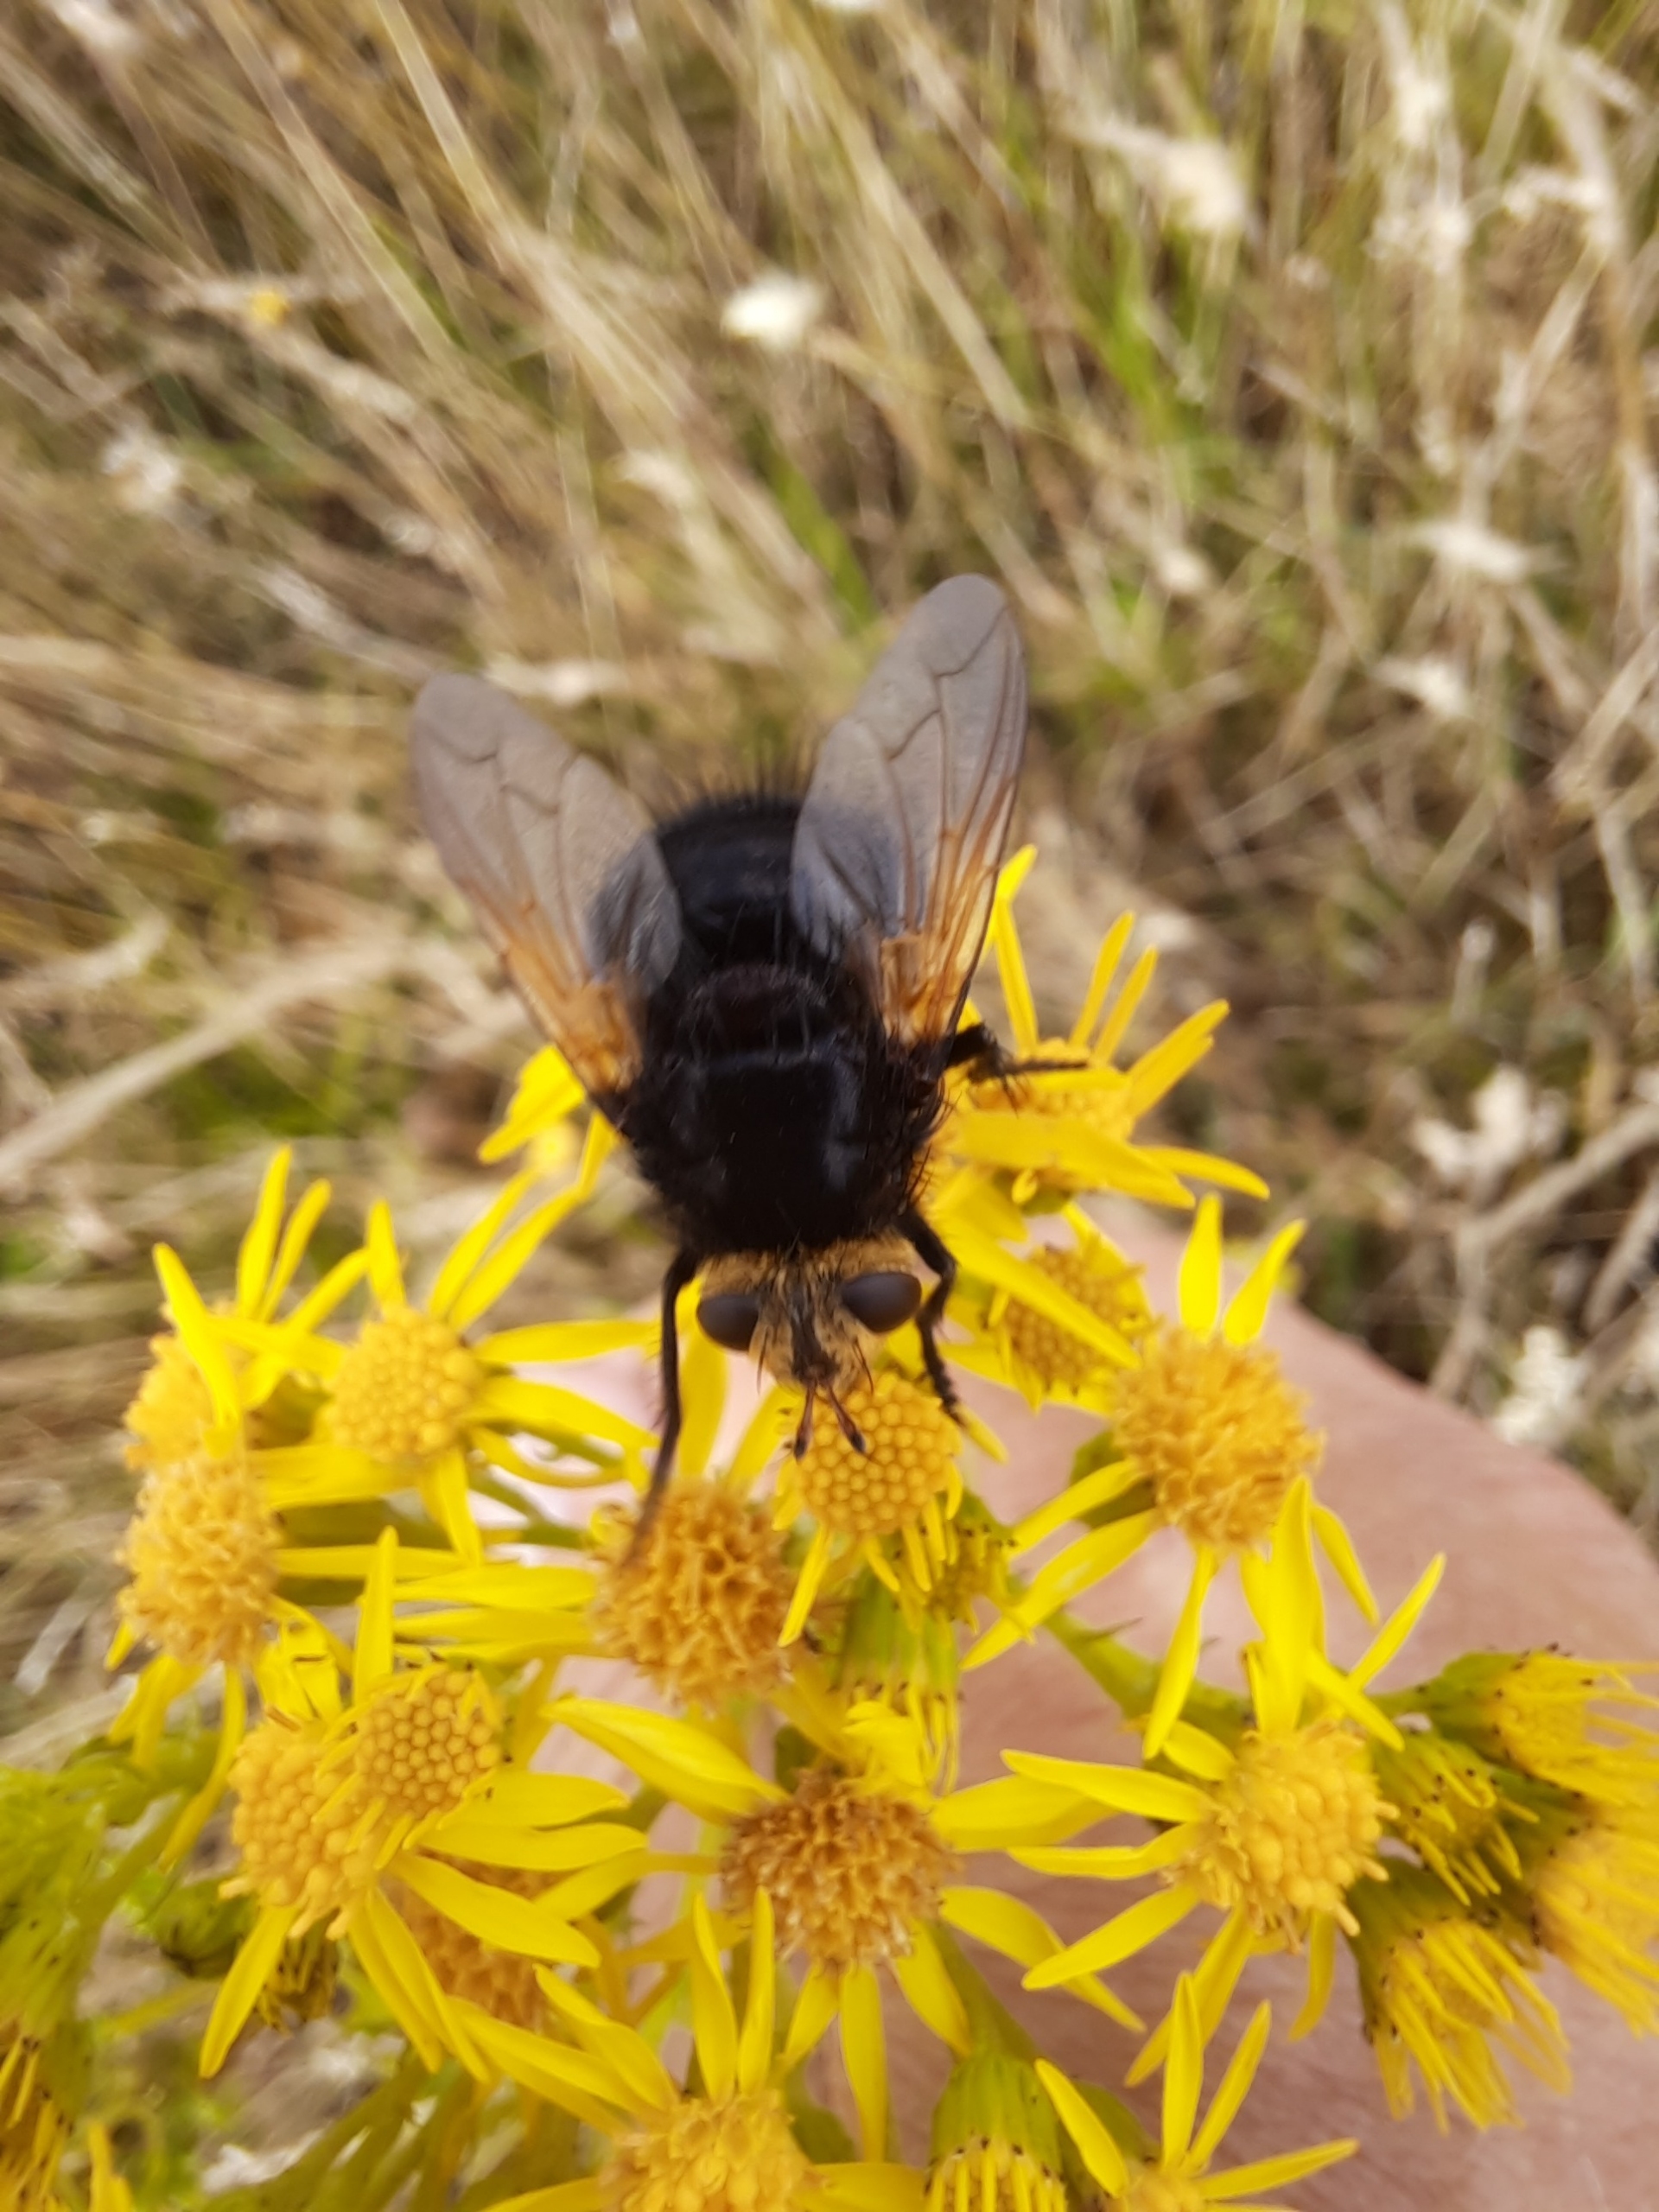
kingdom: Animalia
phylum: Arthropoda
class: Insecta
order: Diptera
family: Tachinidae
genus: Tachina
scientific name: Tachina grossa
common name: Kæmpefluen Harald
